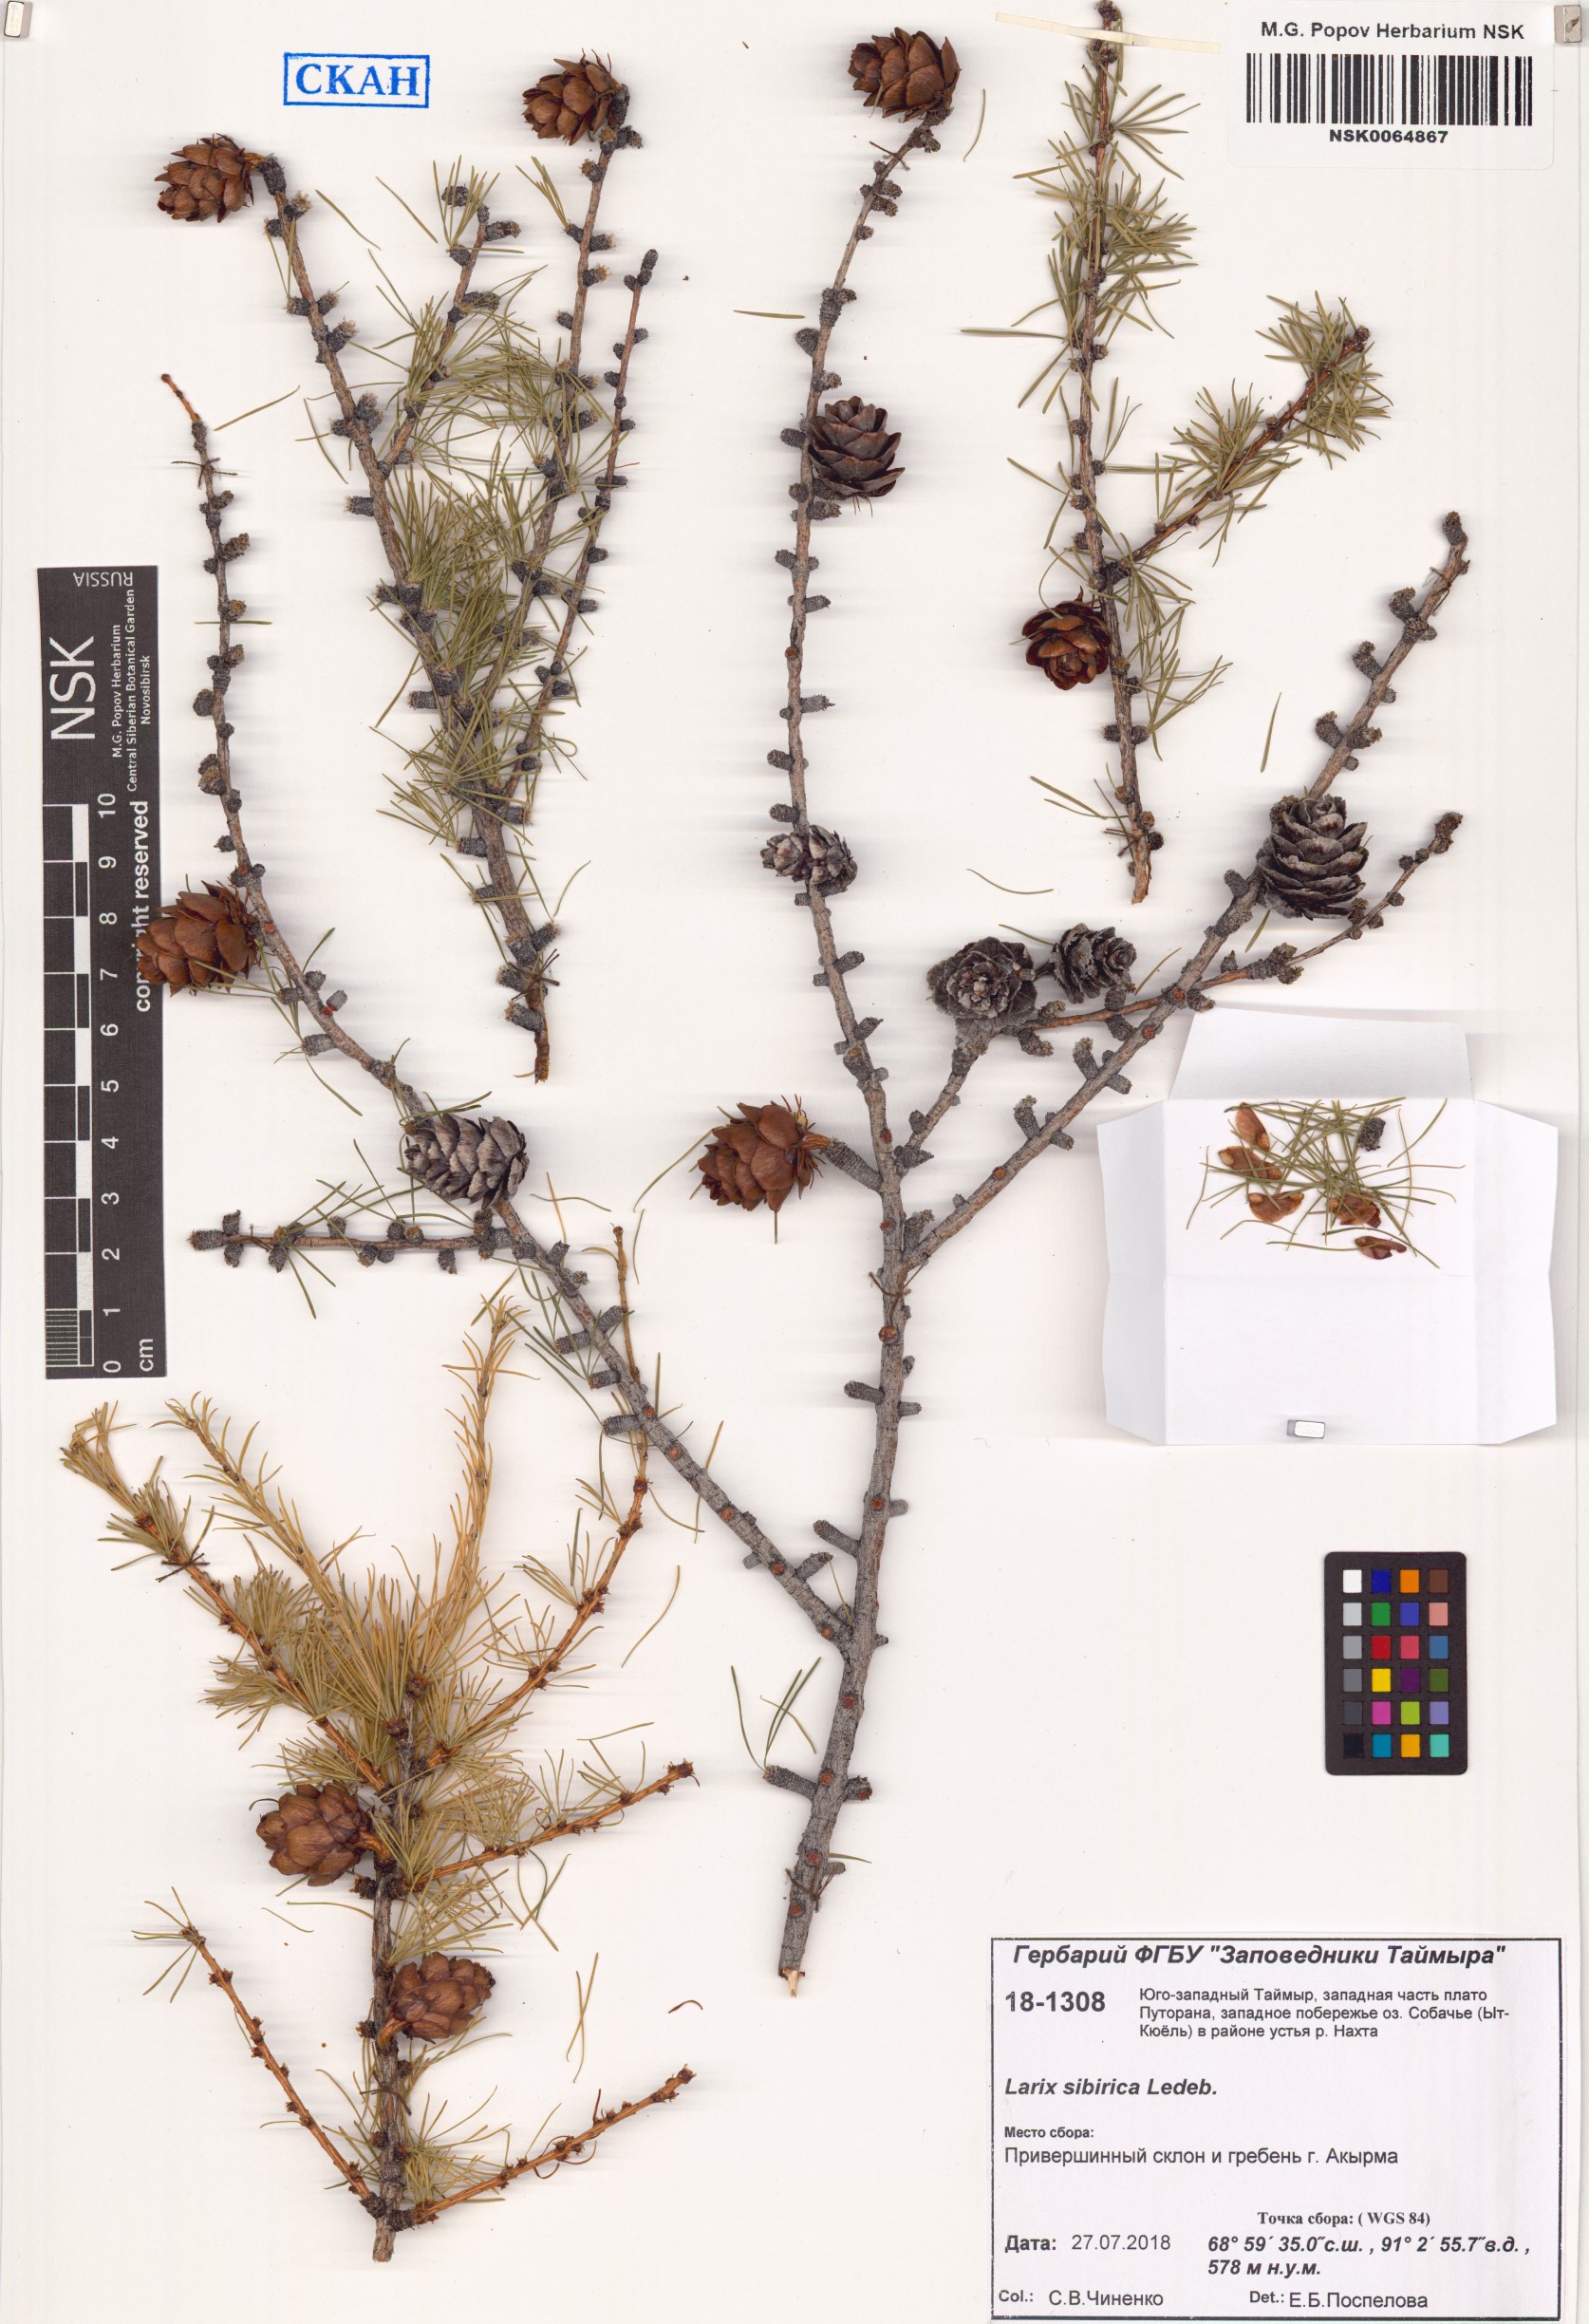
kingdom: Plantae
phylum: Tracheophyta
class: Pinopsida
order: Pinales
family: Pinaceae
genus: Larix
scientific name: Larix sibirica
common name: Siberian larch
